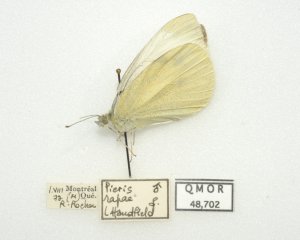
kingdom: Animalia
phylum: Arthropoda
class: Insecta
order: Lepidoptera
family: Pieridae
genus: Pieris
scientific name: Pieris rapae
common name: Cabbage White
